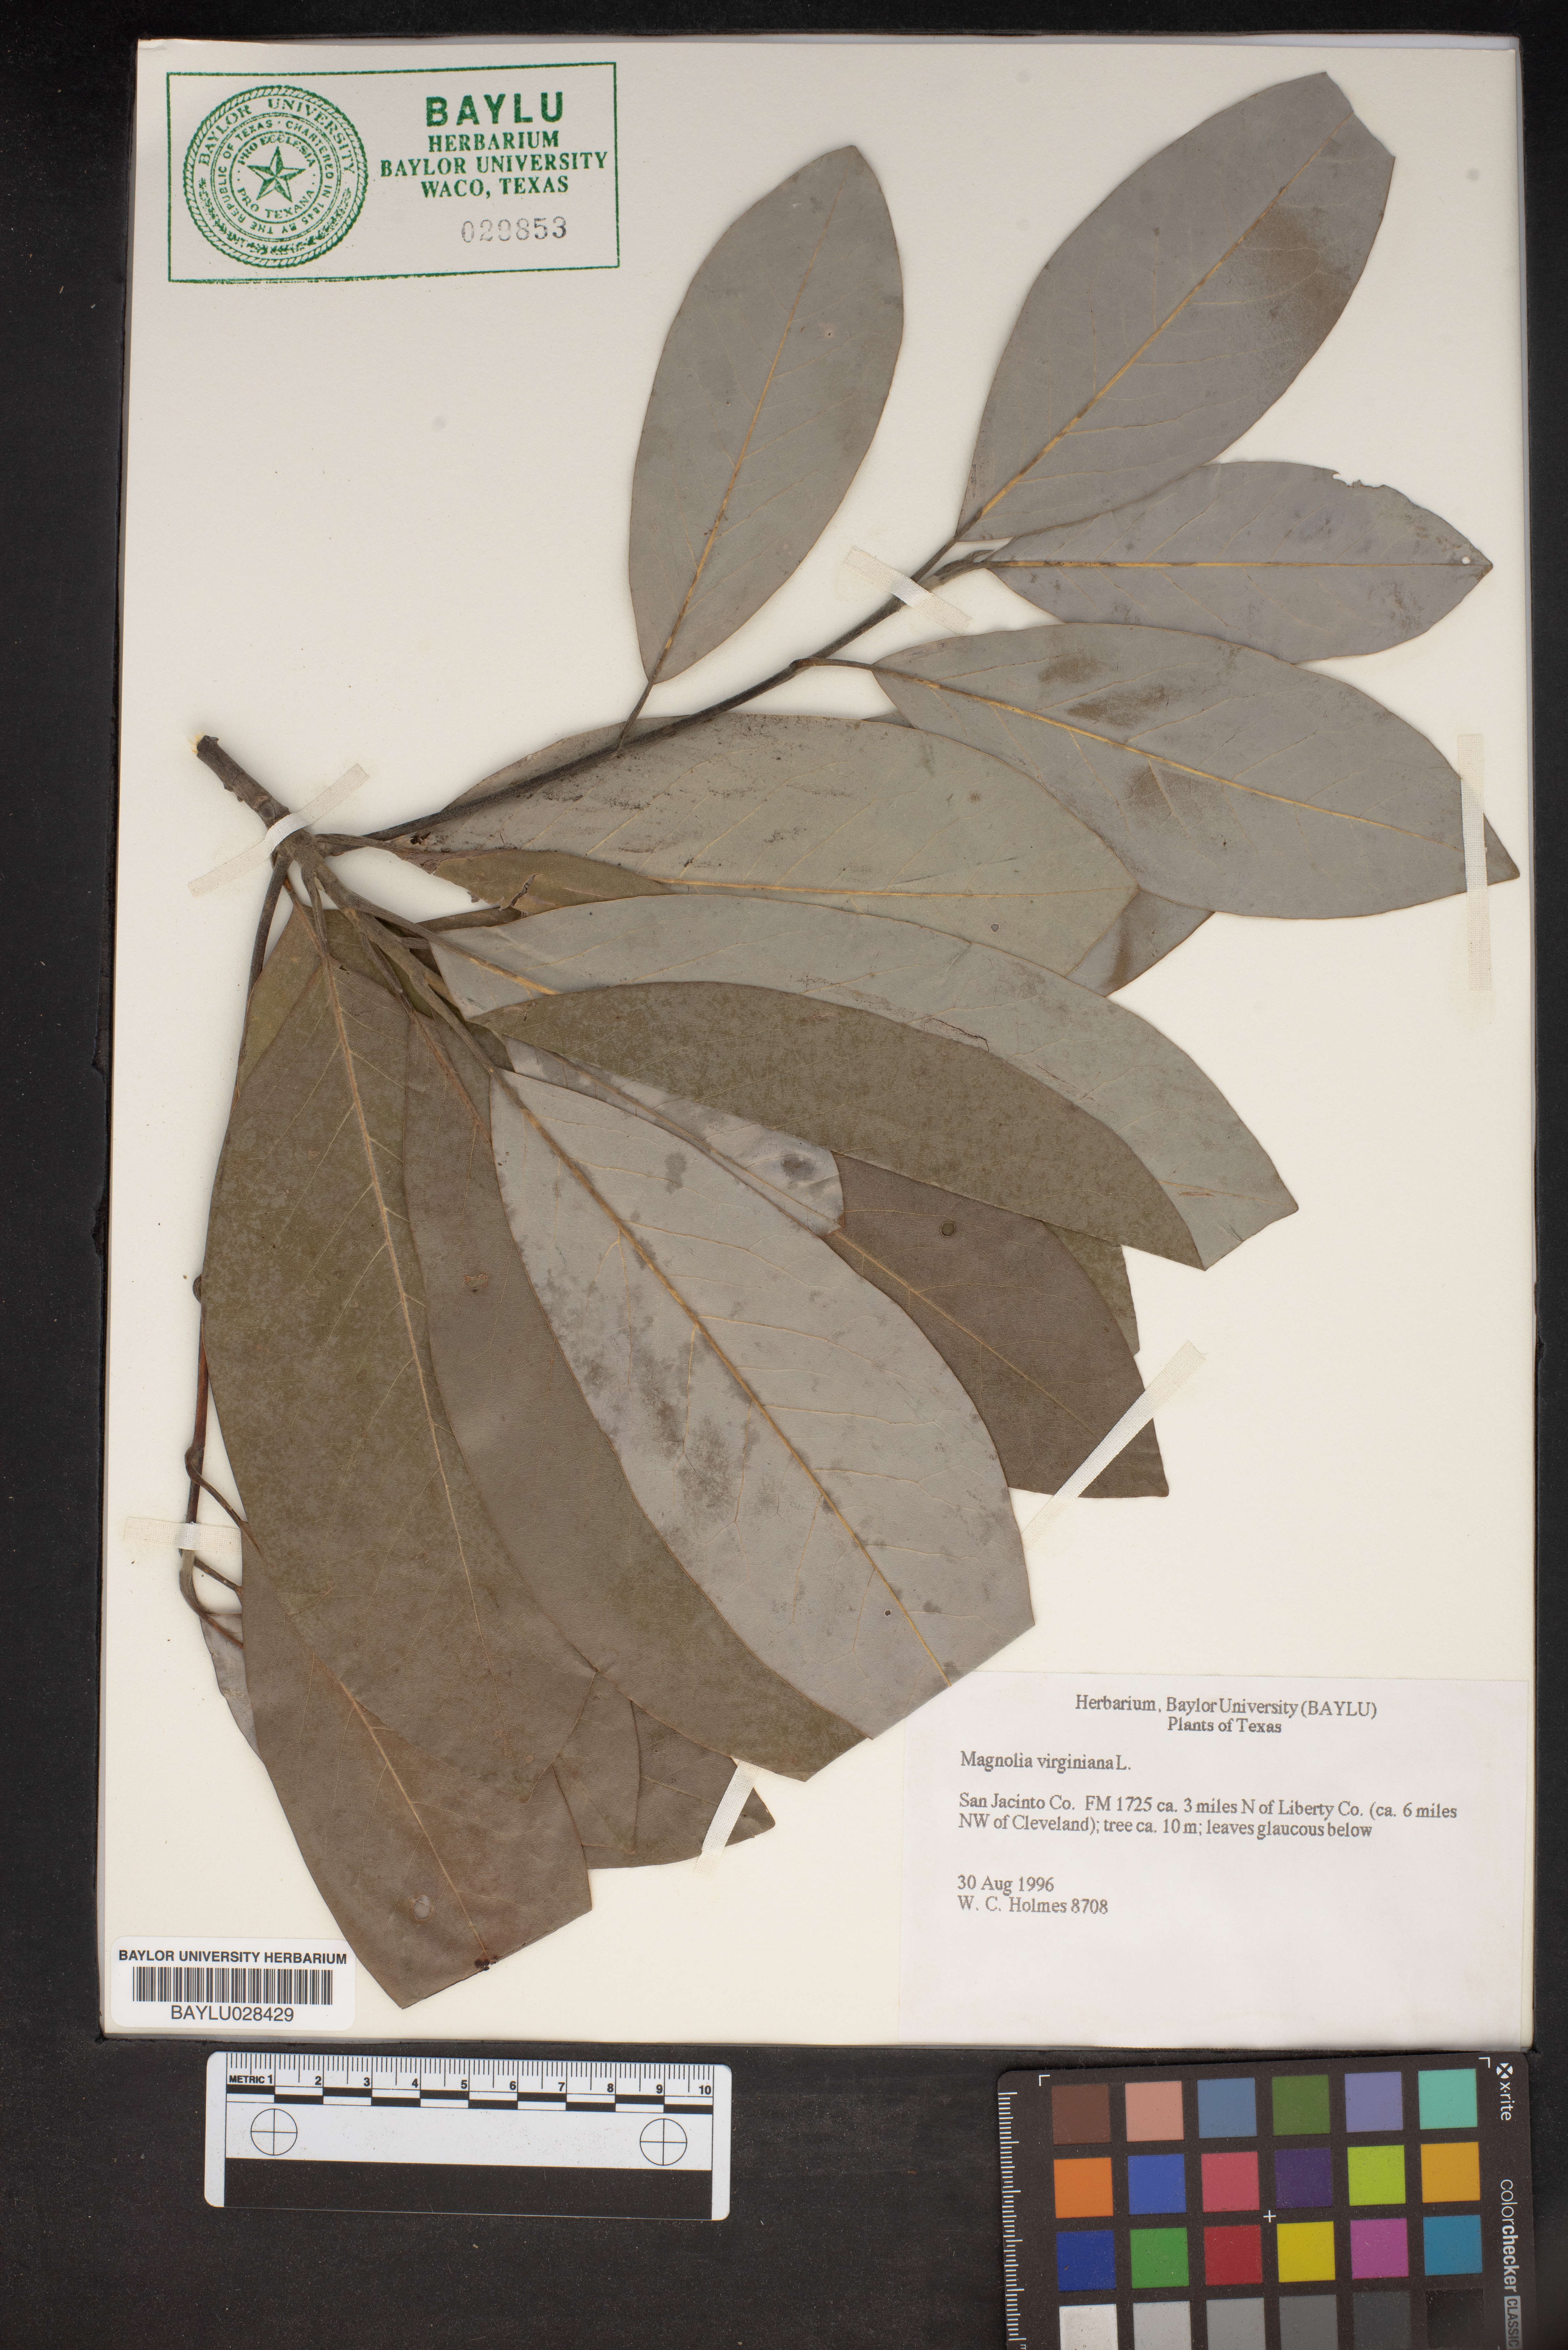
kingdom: Plantae
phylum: Tracheophyta
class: Magnoliopsida
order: Magnoliales
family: Magnoliaceae
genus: Magnolia
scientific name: Magnolia virginiana
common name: Swamp bay
